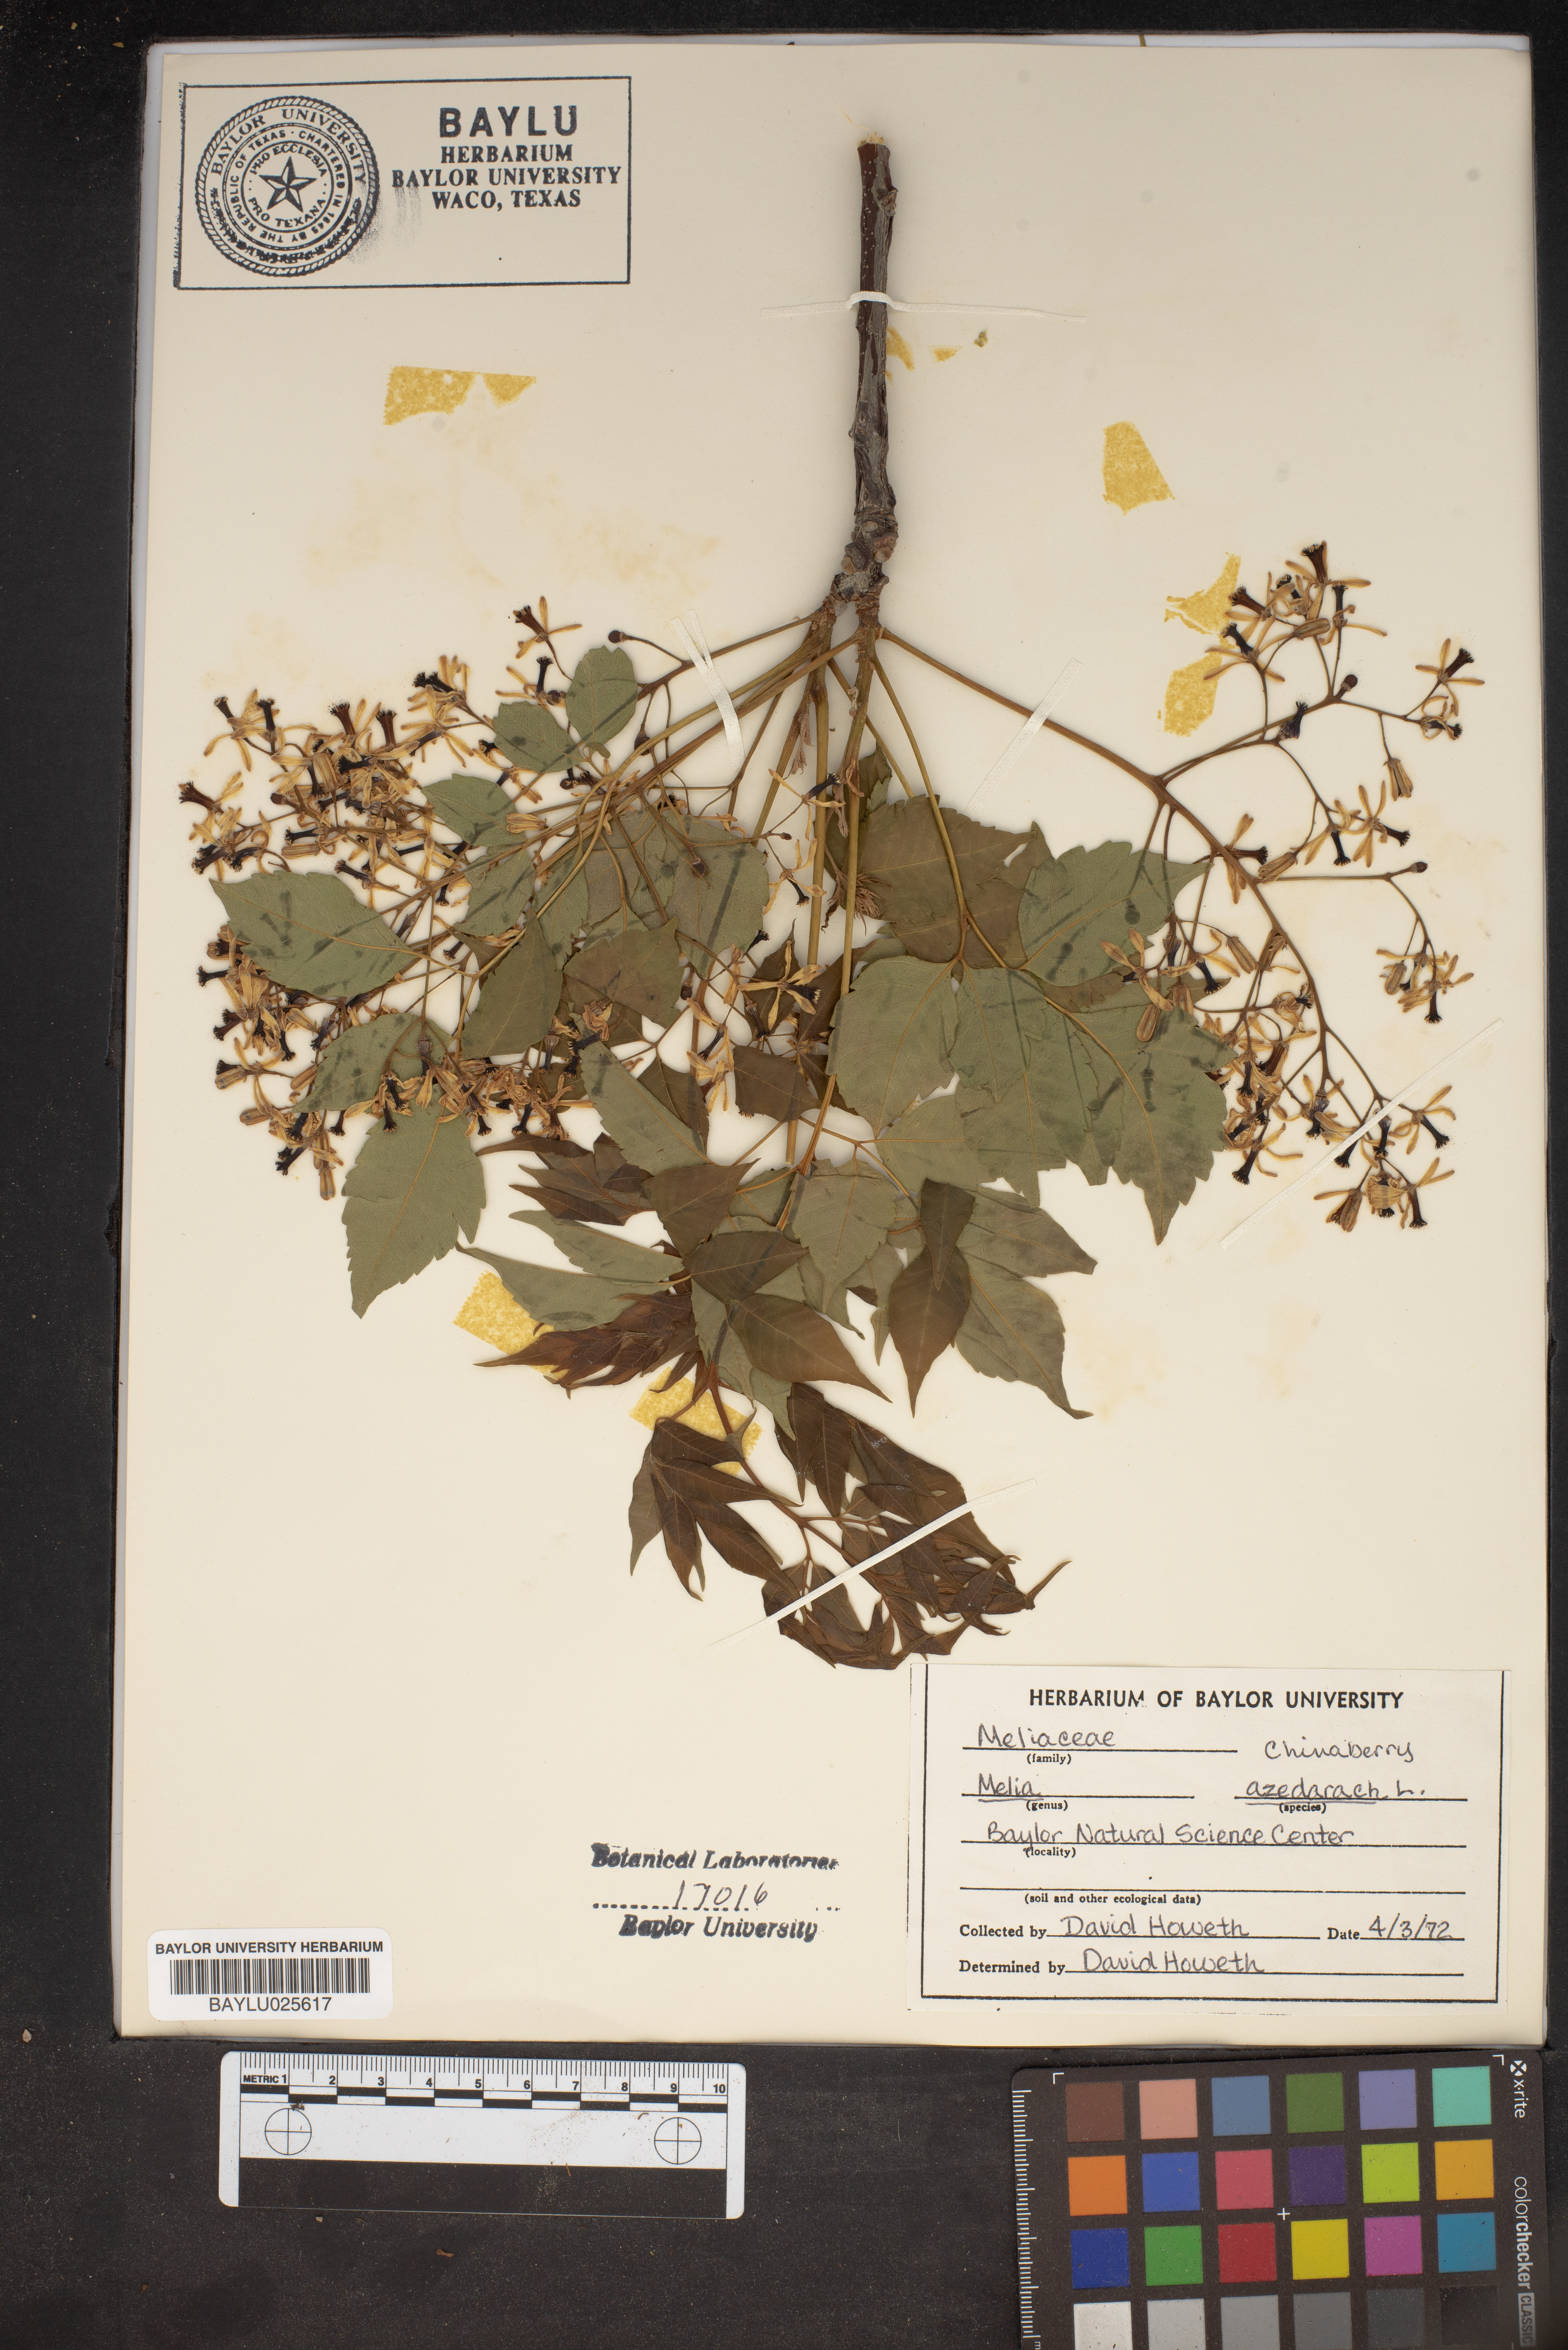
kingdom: Plantae
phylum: Tracheophyta
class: Magnoliopsida
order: Sapindales
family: Meliaceae
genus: Melia
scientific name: Melia azedarach
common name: Chinaberrytree
